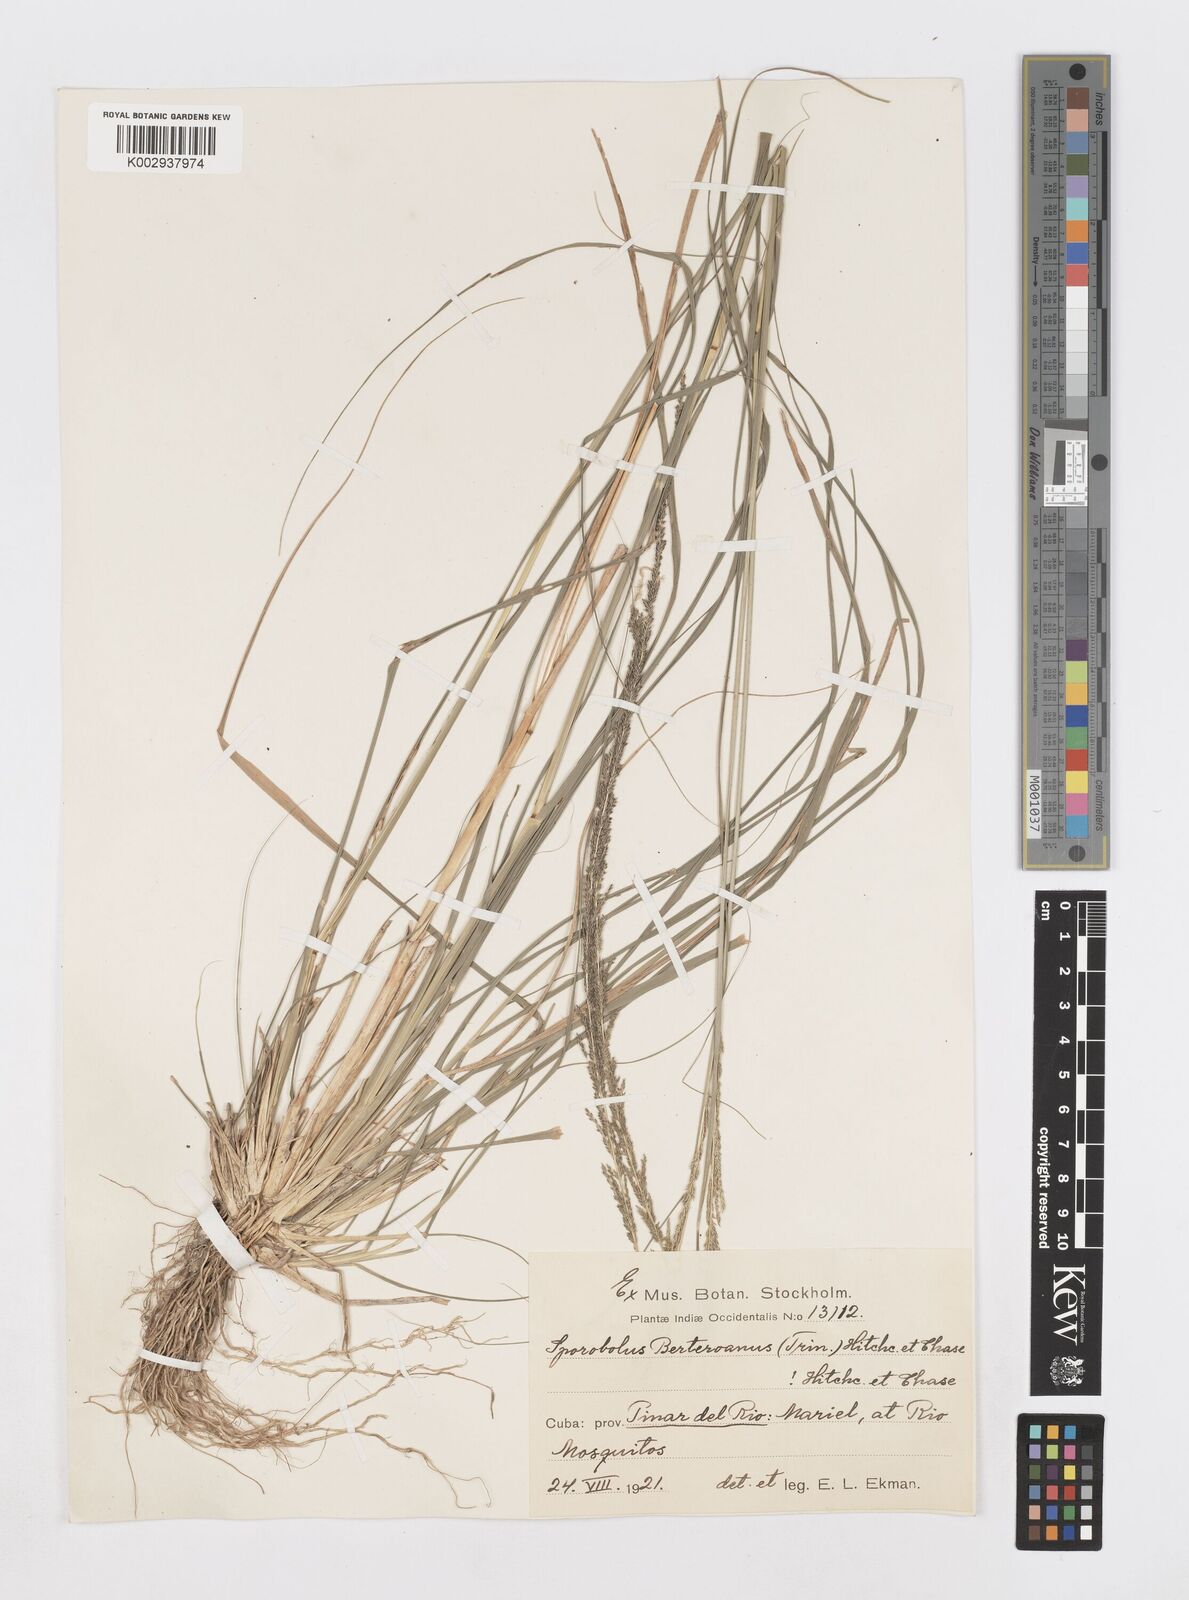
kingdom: Plantae
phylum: Tracheophyta
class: Liliopsida
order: Poales
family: Poaceae
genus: Sporobolus
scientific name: Sporobolus indicus
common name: Smut grass
